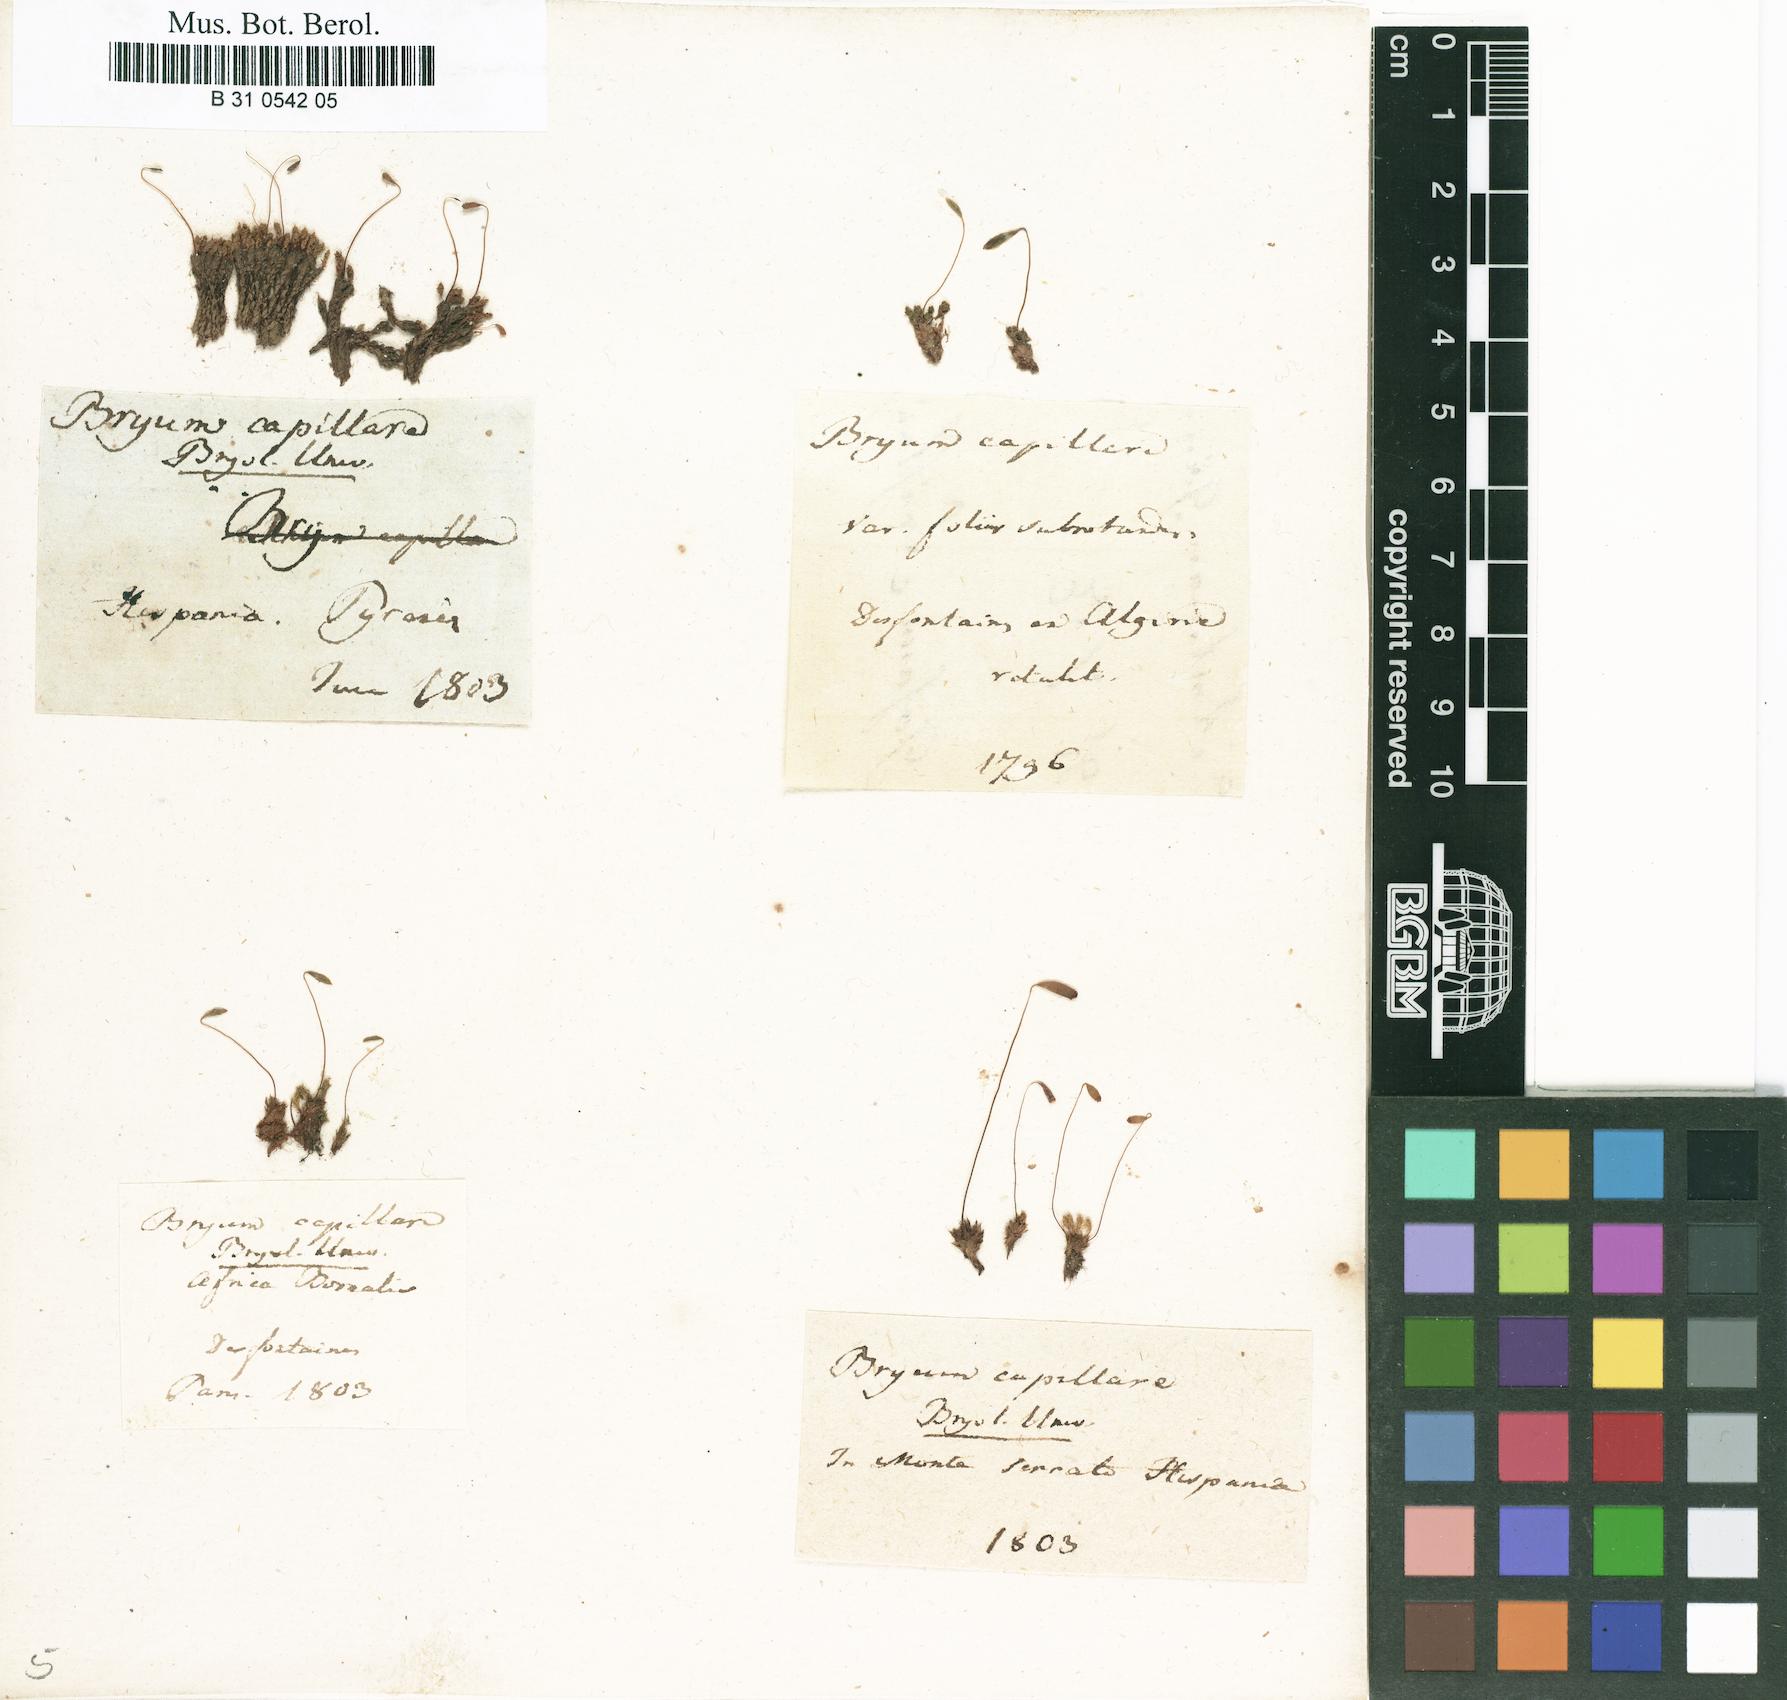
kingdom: Plantae
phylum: Bryophyta
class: Bryopsida
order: Bryales
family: Bryaceae
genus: Rosulabryum
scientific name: Rosulabryum capillare
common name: Capillary thread-moss
